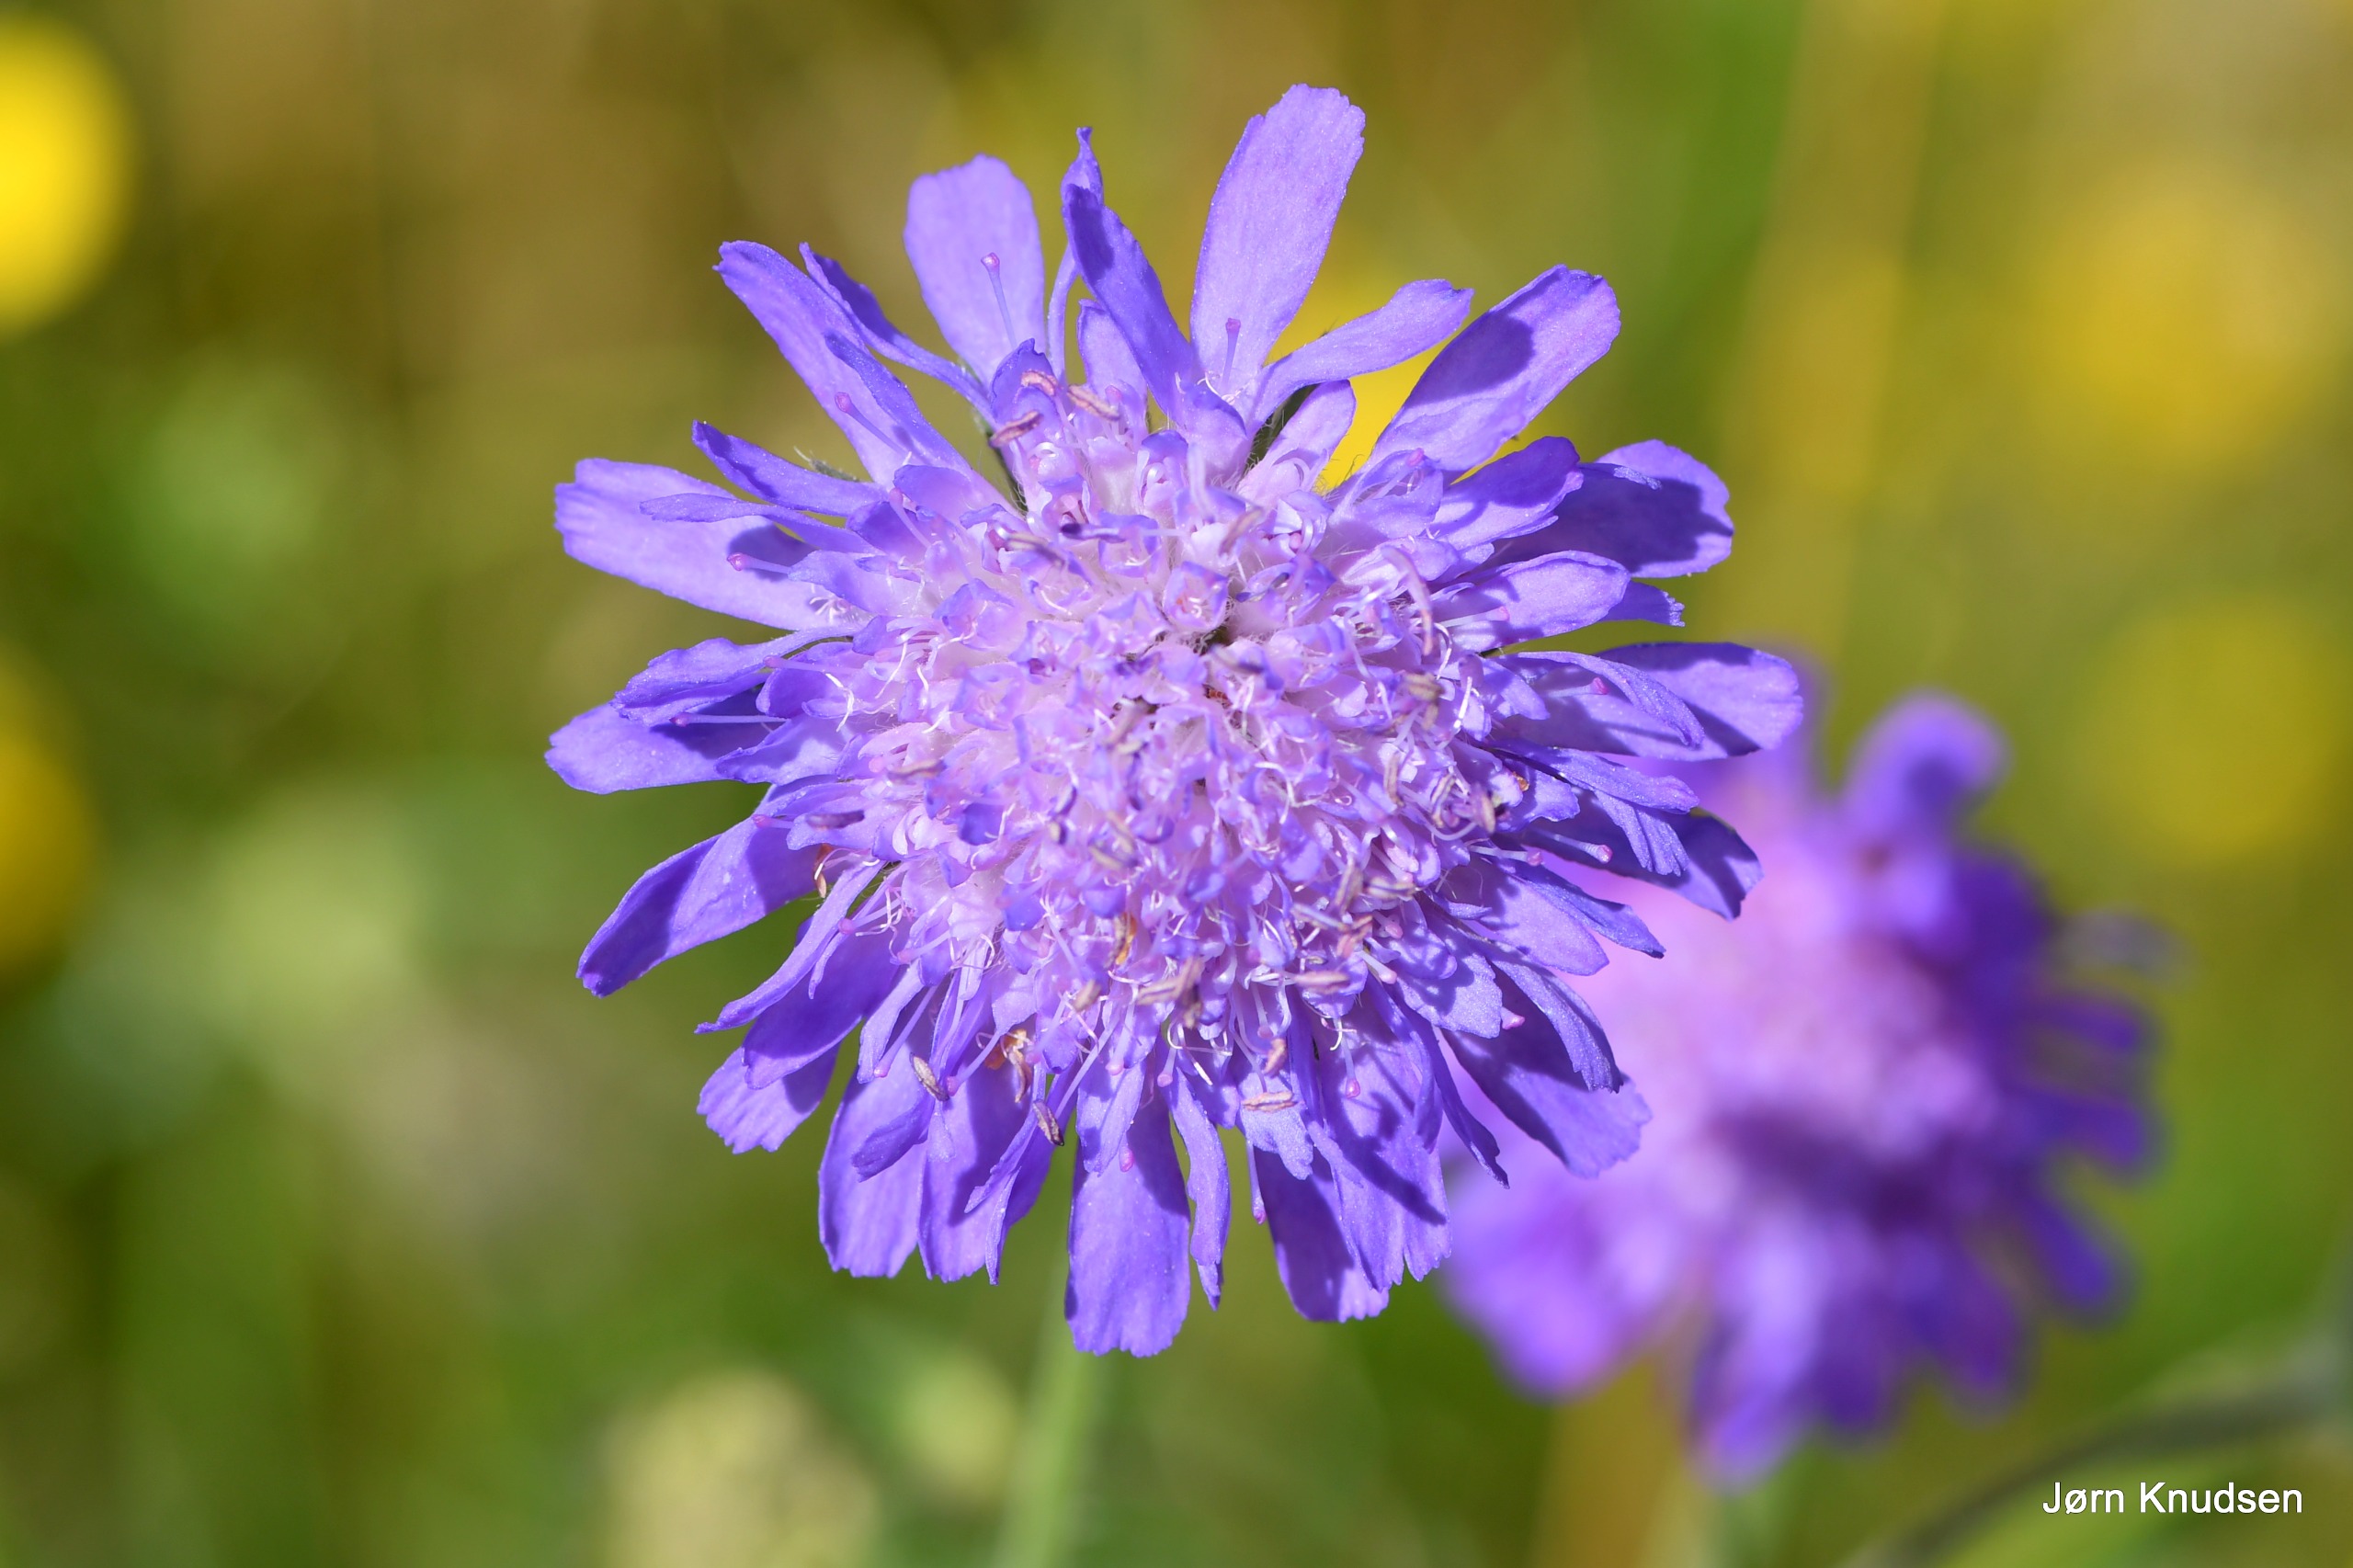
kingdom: Plantae
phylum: Tracheophyta
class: Magnoliopsida
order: Dipsacales
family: Caprifoliaceae
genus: Knautia
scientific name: Knautia arvensis
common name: Blåhat
